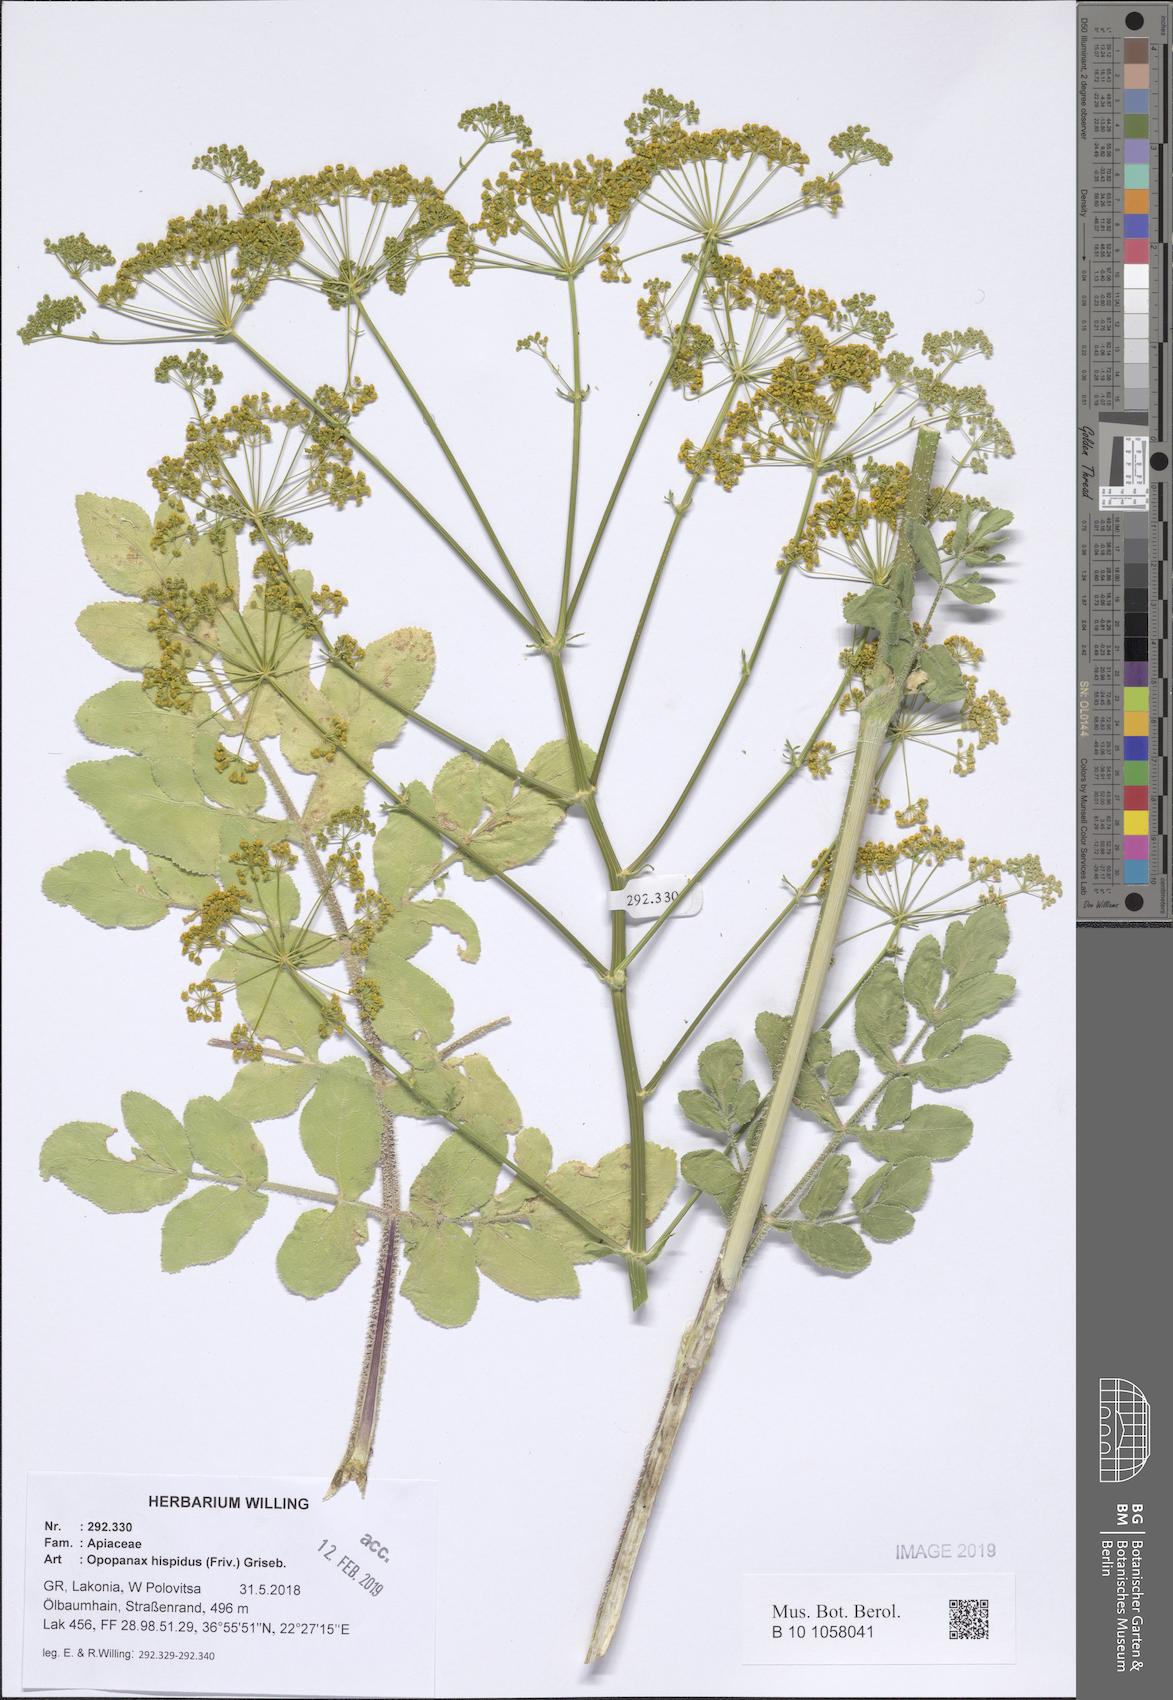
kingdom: Plantae
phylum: Tracheophyta
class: Magnoliopsida
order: Apiales
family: Apiaceae
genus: Opopanax
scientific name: Opopanax hispidus
